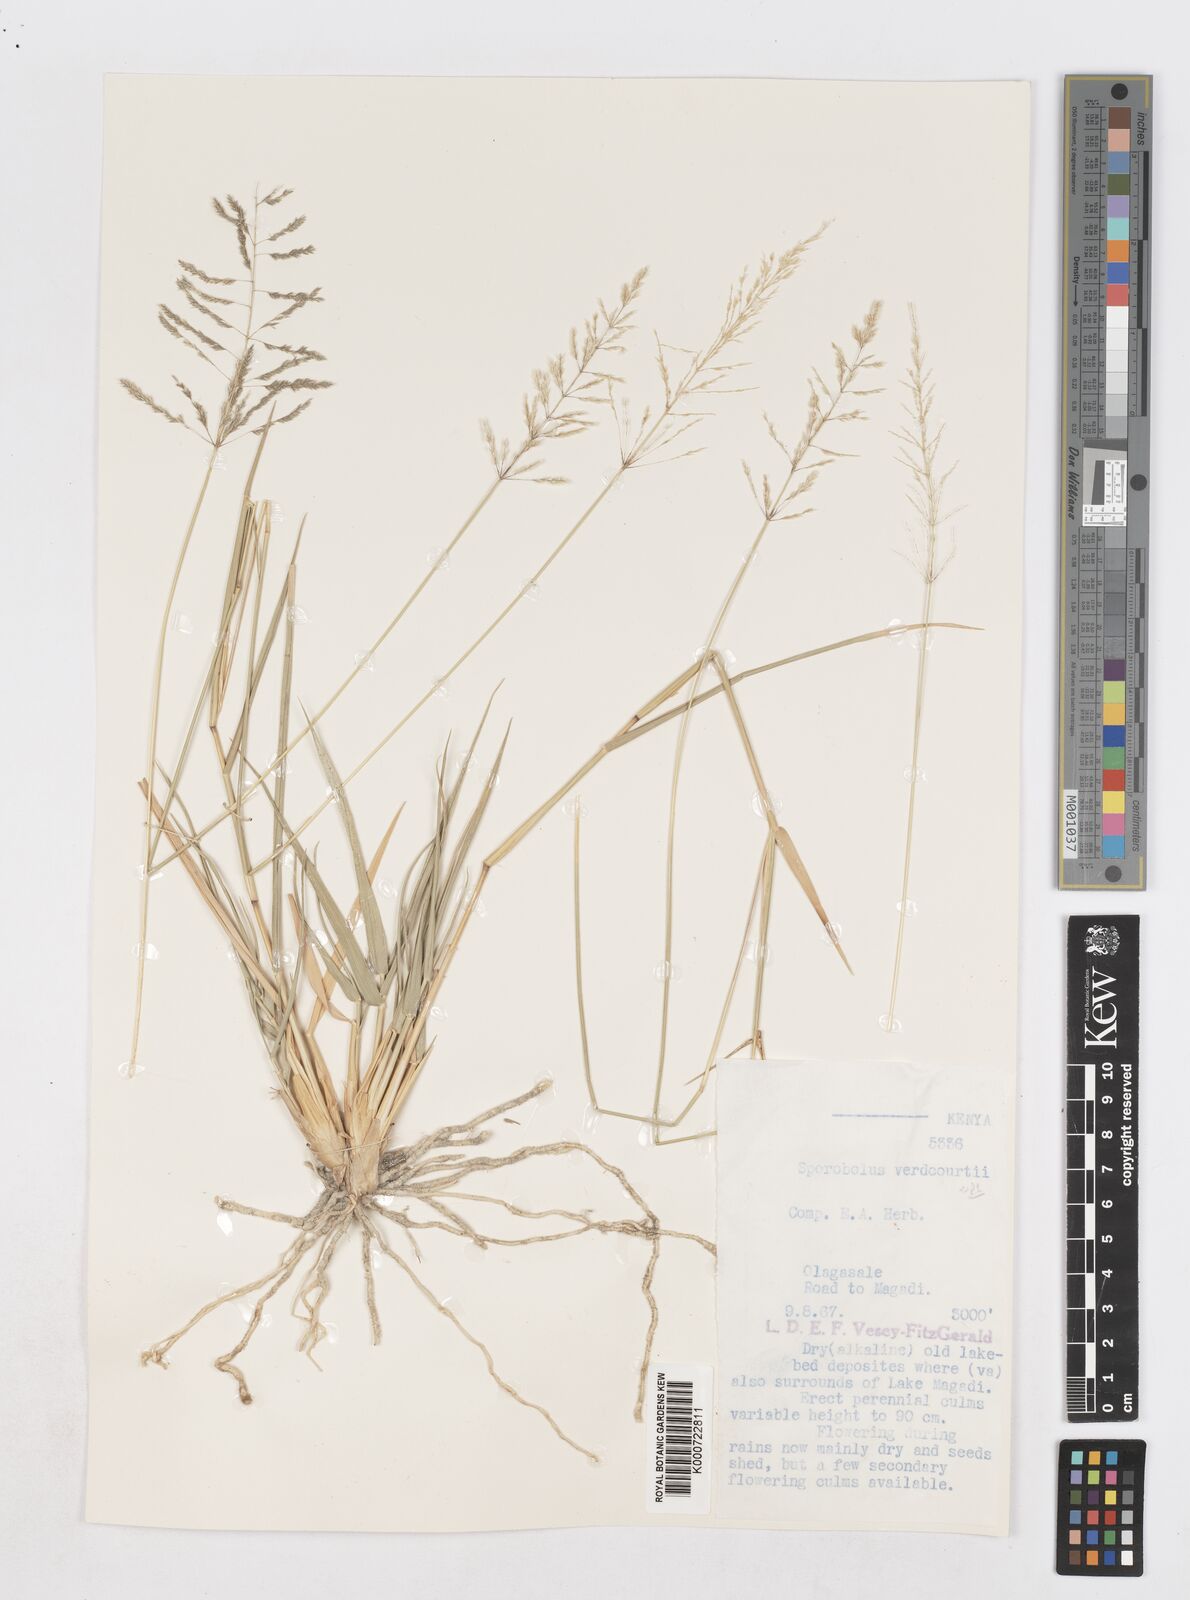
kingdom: Plantae
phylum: Tracheophyta
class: Liliopsida
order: Poales
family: Poaceae
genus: Sporobolus
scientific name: Sporobolus ioclados
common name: Pan dropseed
